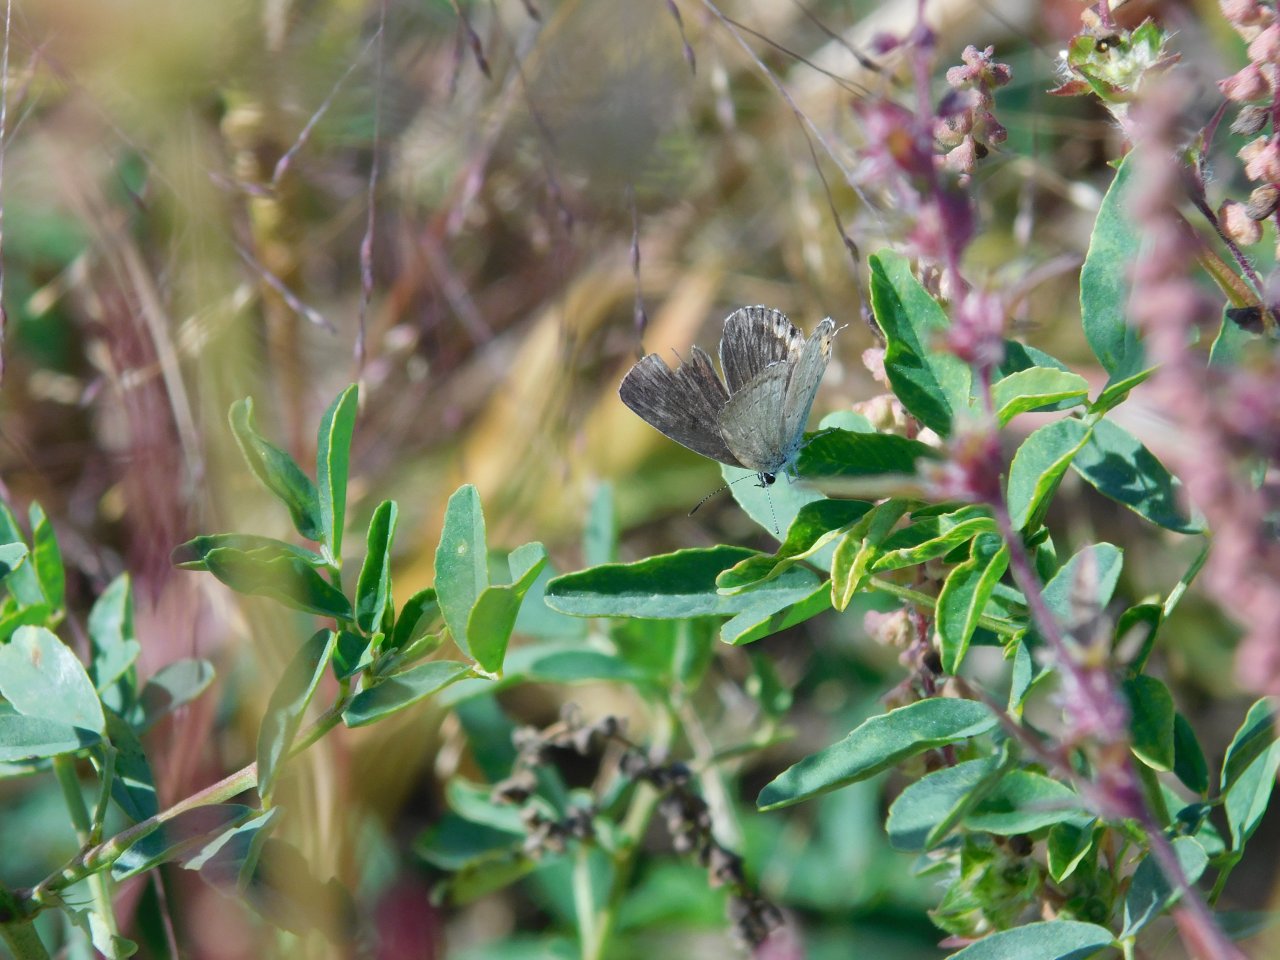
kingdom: Animalia
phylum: Arthropoda
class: Insecta
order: Lepidoptera
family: Lycaenidae
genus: Elkalyce
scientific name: Elkalyce comyntas
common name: Eastern Tailed-Blue
